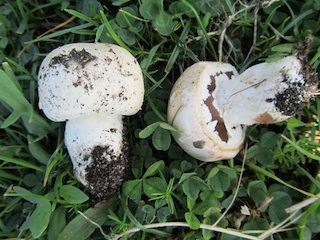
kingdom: Fungi
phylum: Basidiomycota
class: Agaricomycetes
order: Agaricales
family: Agaricaceae
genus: Agaricus
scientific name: Agaricus litoralis
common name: kyst-champignon
